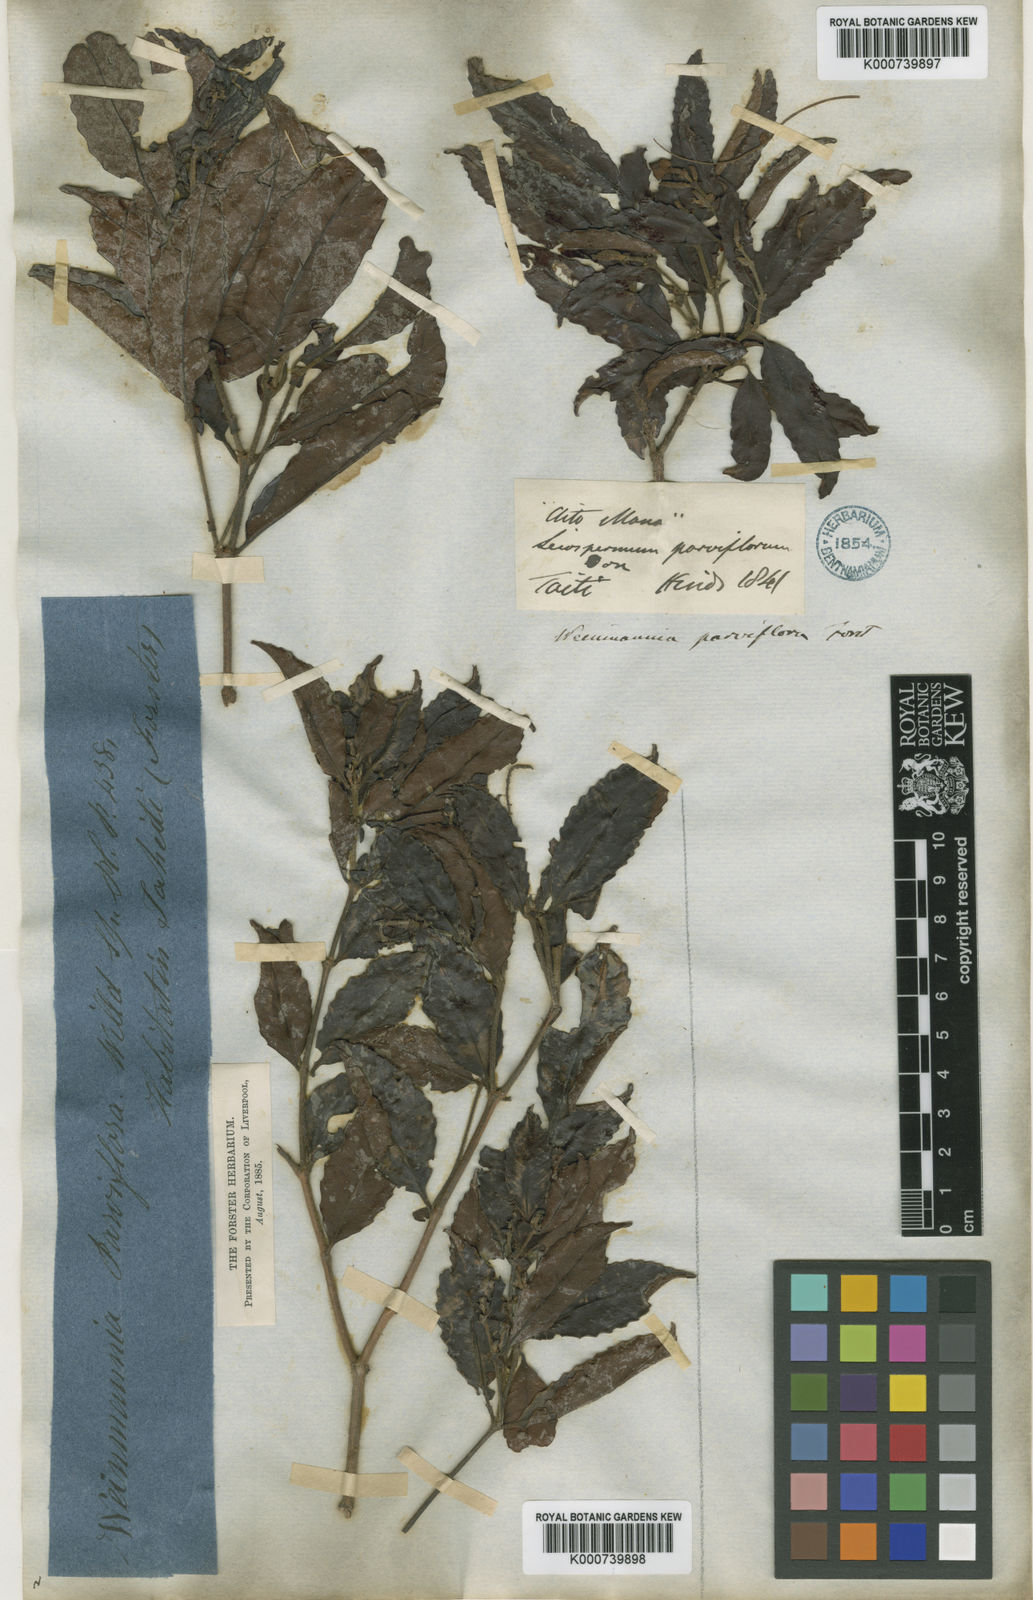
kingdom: Plantae
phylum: Tracheophyta
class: Magnoliopsida
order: Oxalidales
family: Cunoniaceae
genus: Pterophylla
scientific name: Pterophylla parviflora
